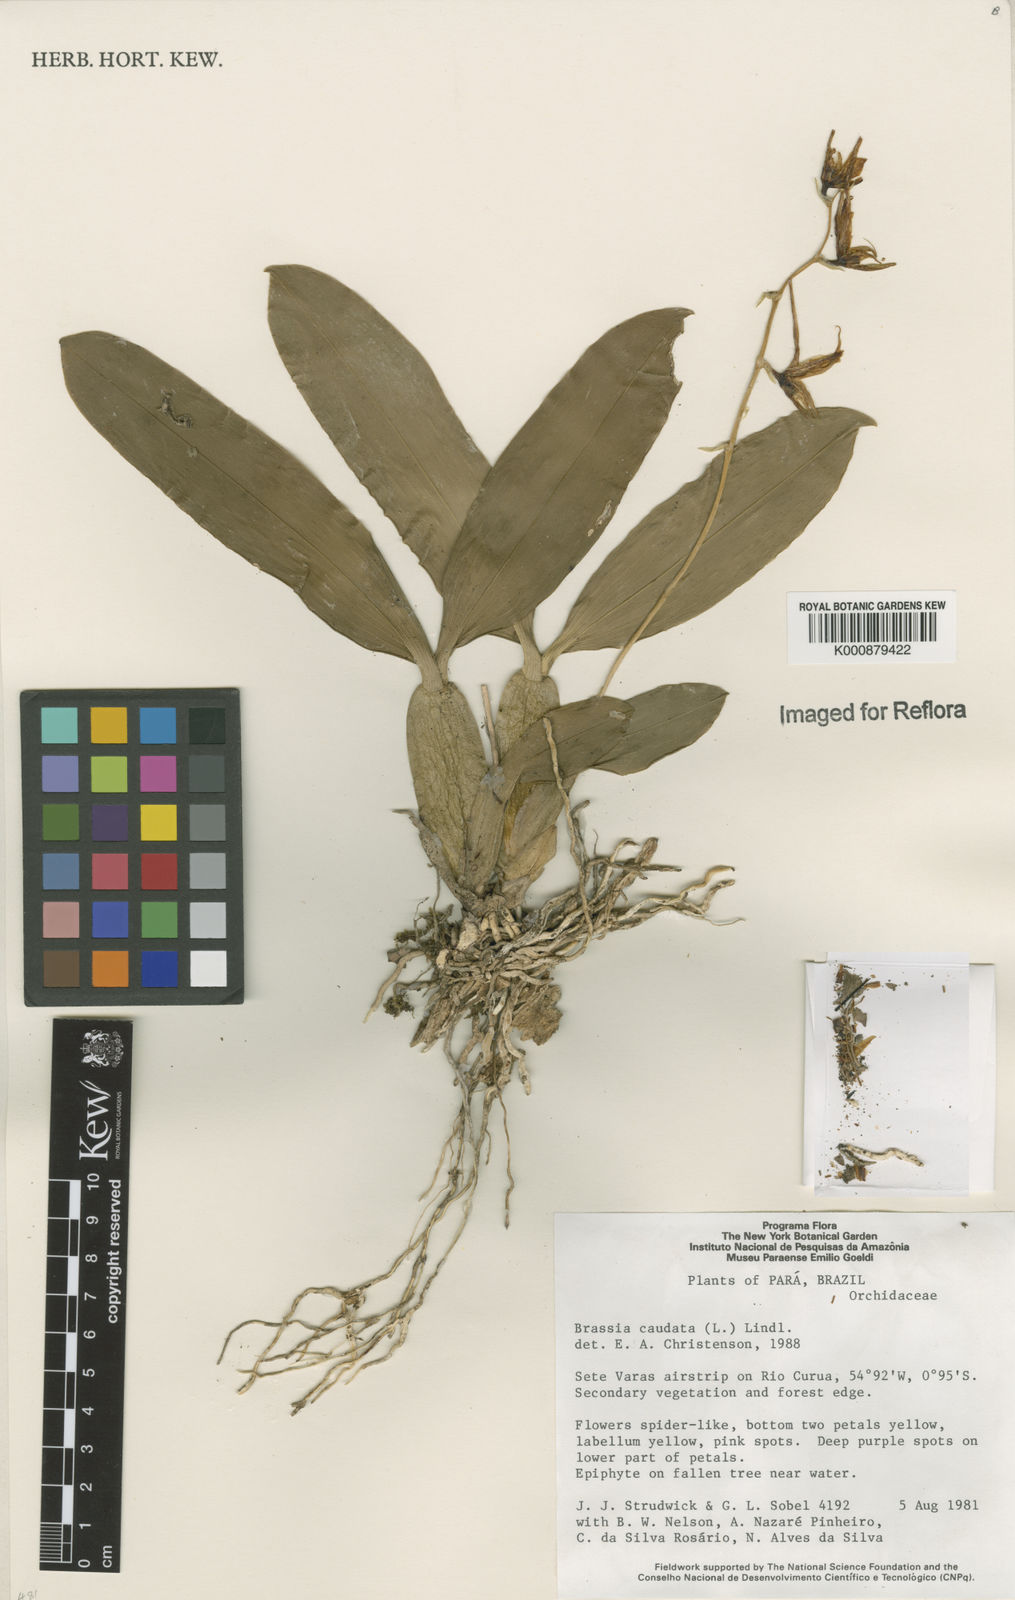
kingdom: Plantae
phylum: Tracheophyta
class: Liliopsida
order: Asparagales
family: Orchidaceae
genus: Brassia
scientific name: Brassia caudata
